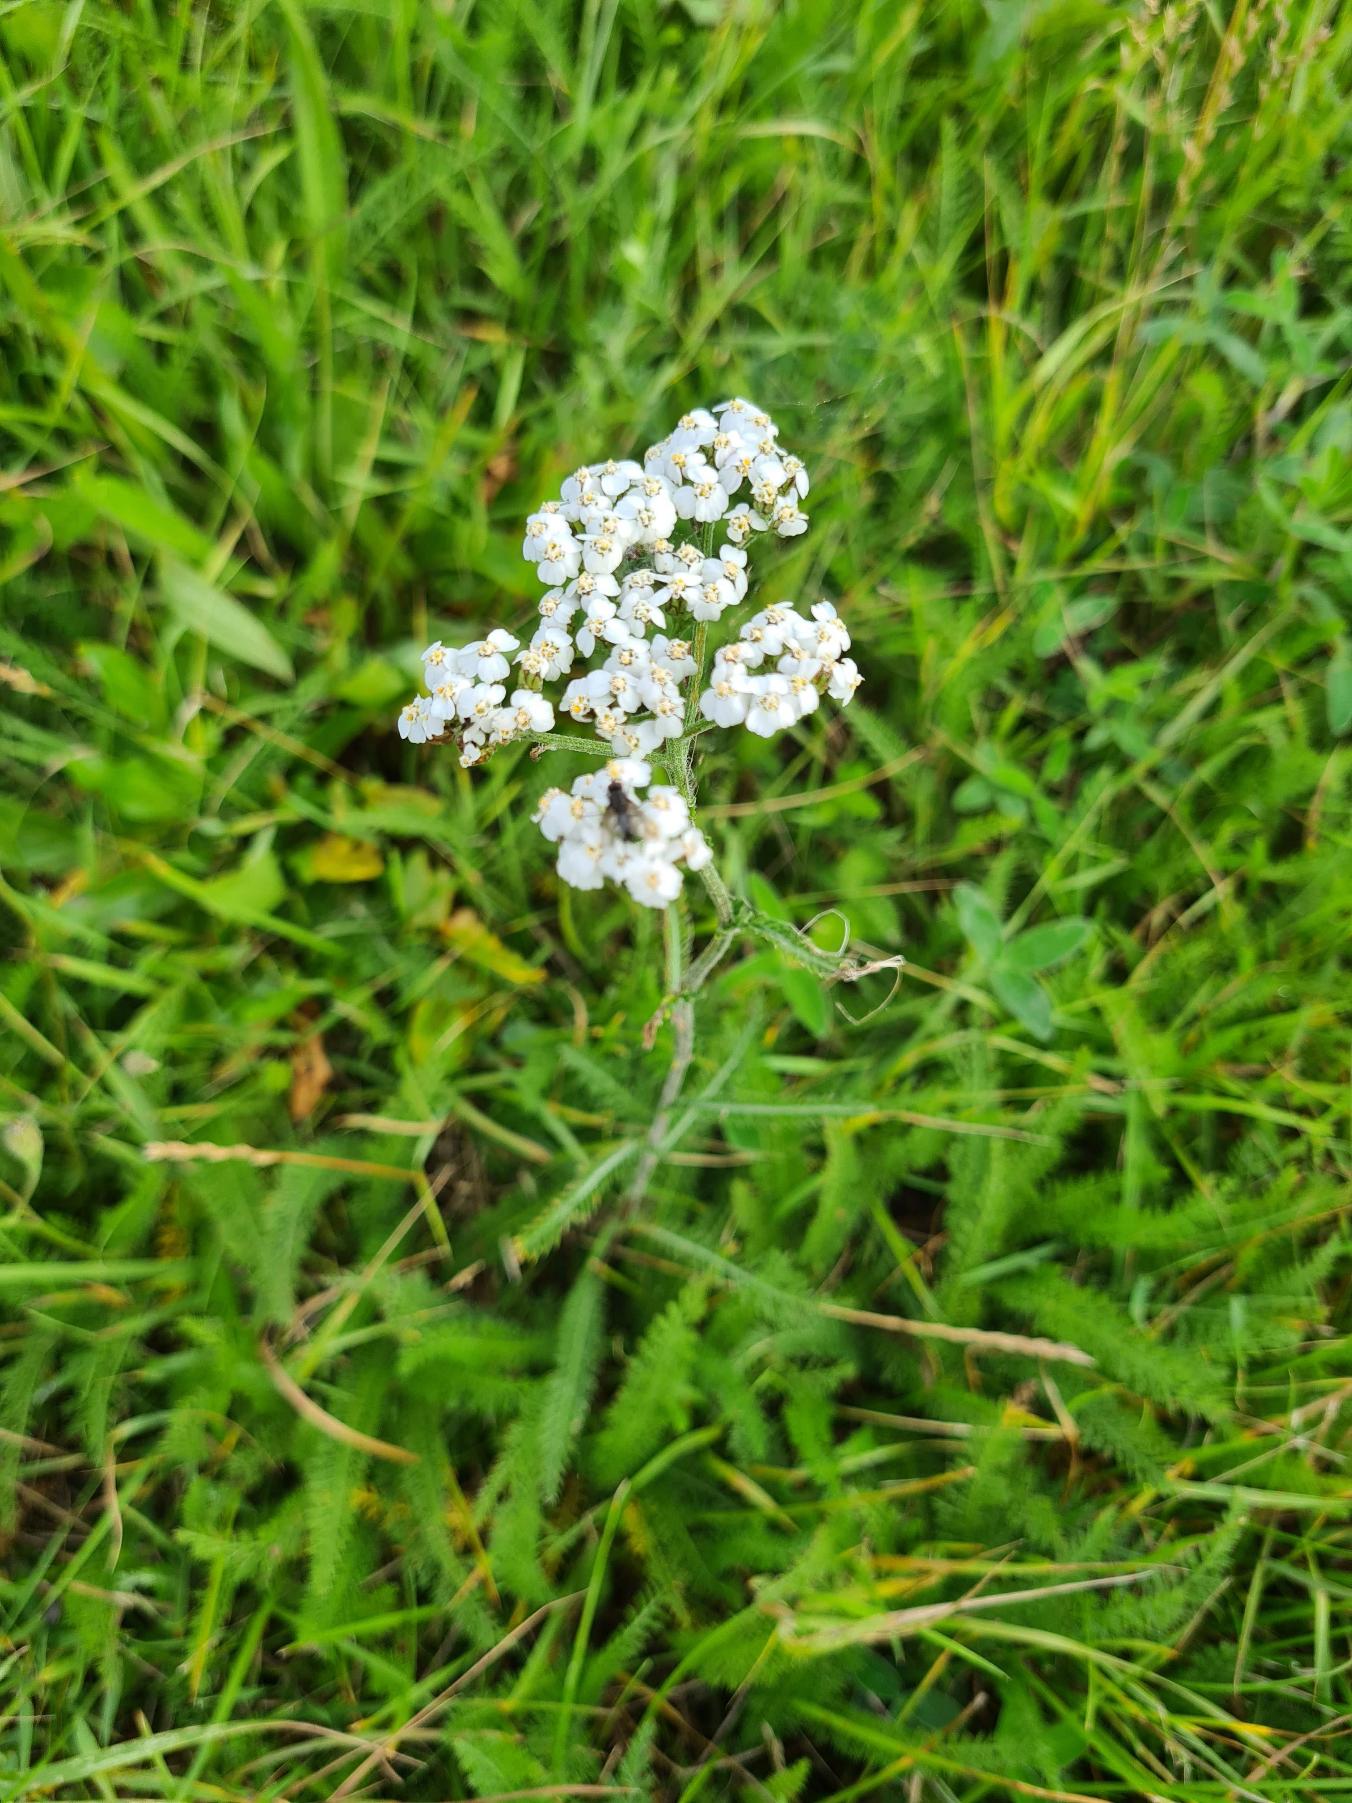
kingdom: Plantae
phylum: Tracheophyta
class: Magnoliopsida
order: Asterales
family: Asteraceae
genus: Achillea
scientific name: Achillea millefolium
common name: Almindelig røllike
